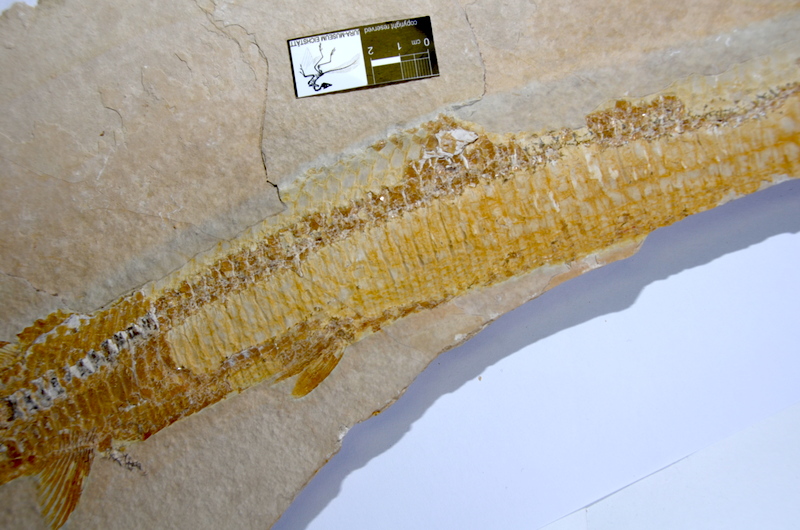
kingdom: Animalia
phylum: Chordata
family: Aspidorhynchidae
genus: Aspidorhynchus
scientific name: Aspidorhynchus acutirostris
